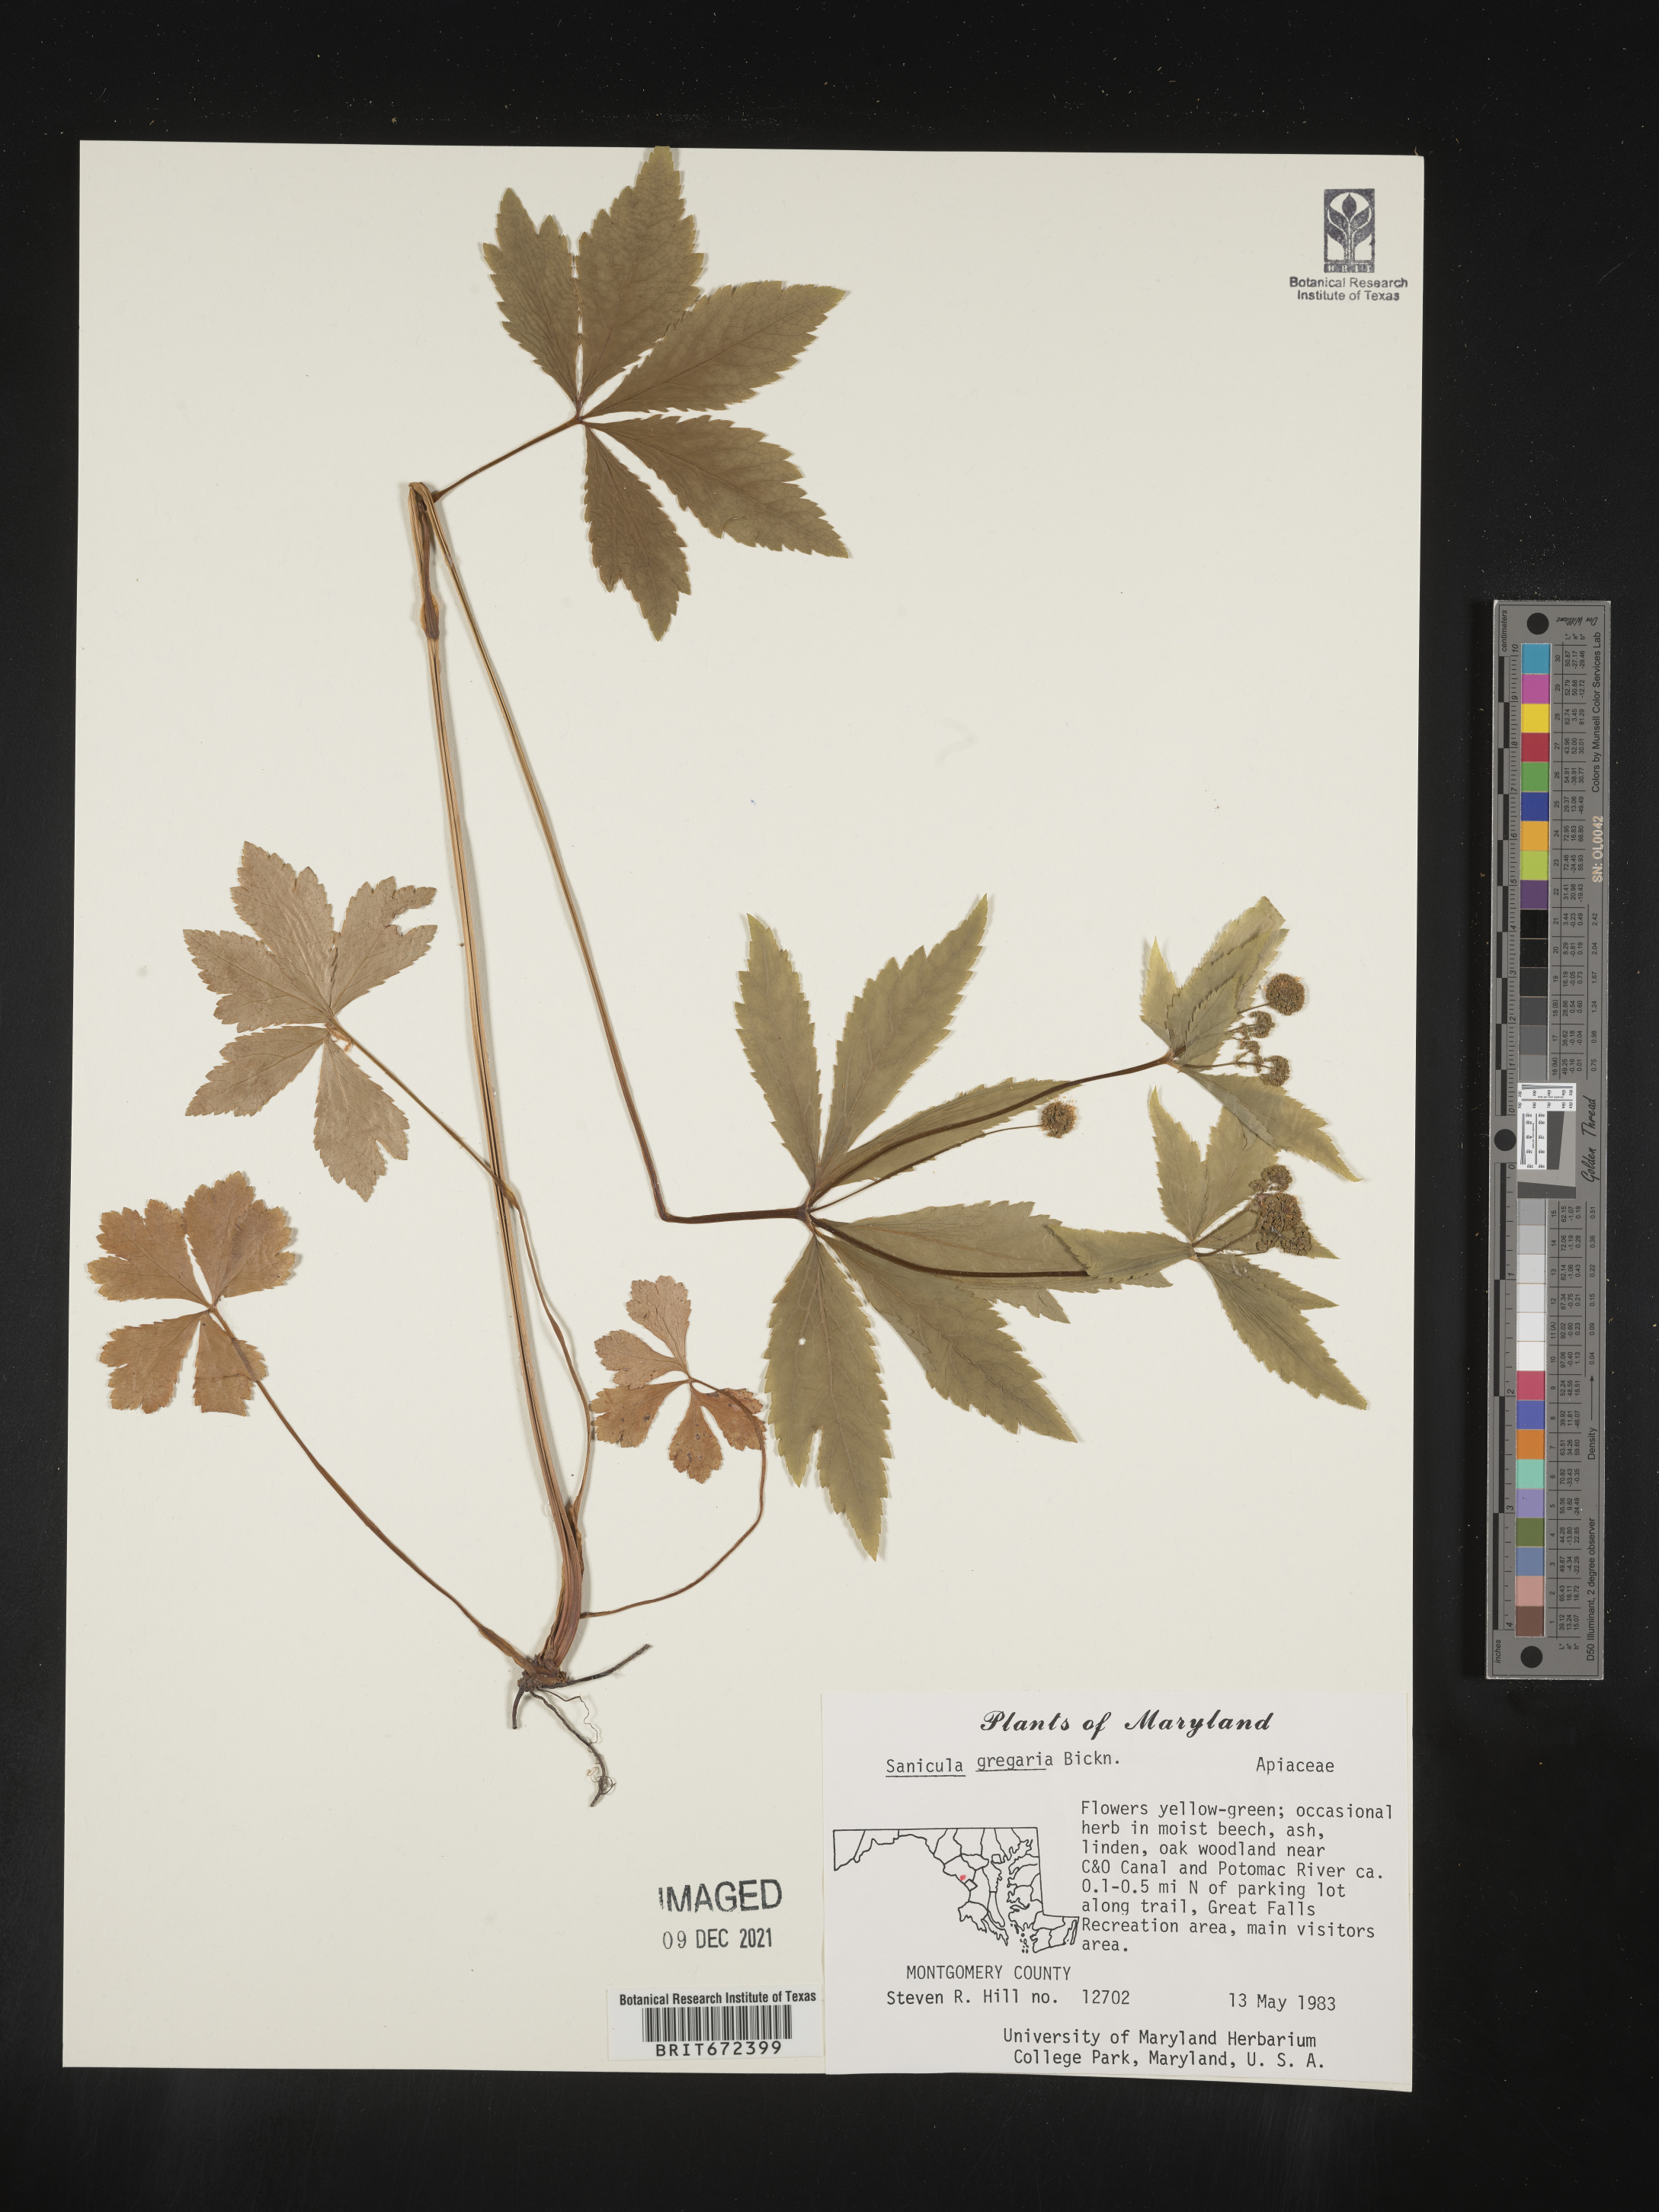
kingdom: Plantae
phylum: Tracheophyta
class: Magnoliopsida
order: Apiales
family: Apiaceae
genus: Sanicula
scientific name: Sanicula odorata
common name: Cluster sanicle
